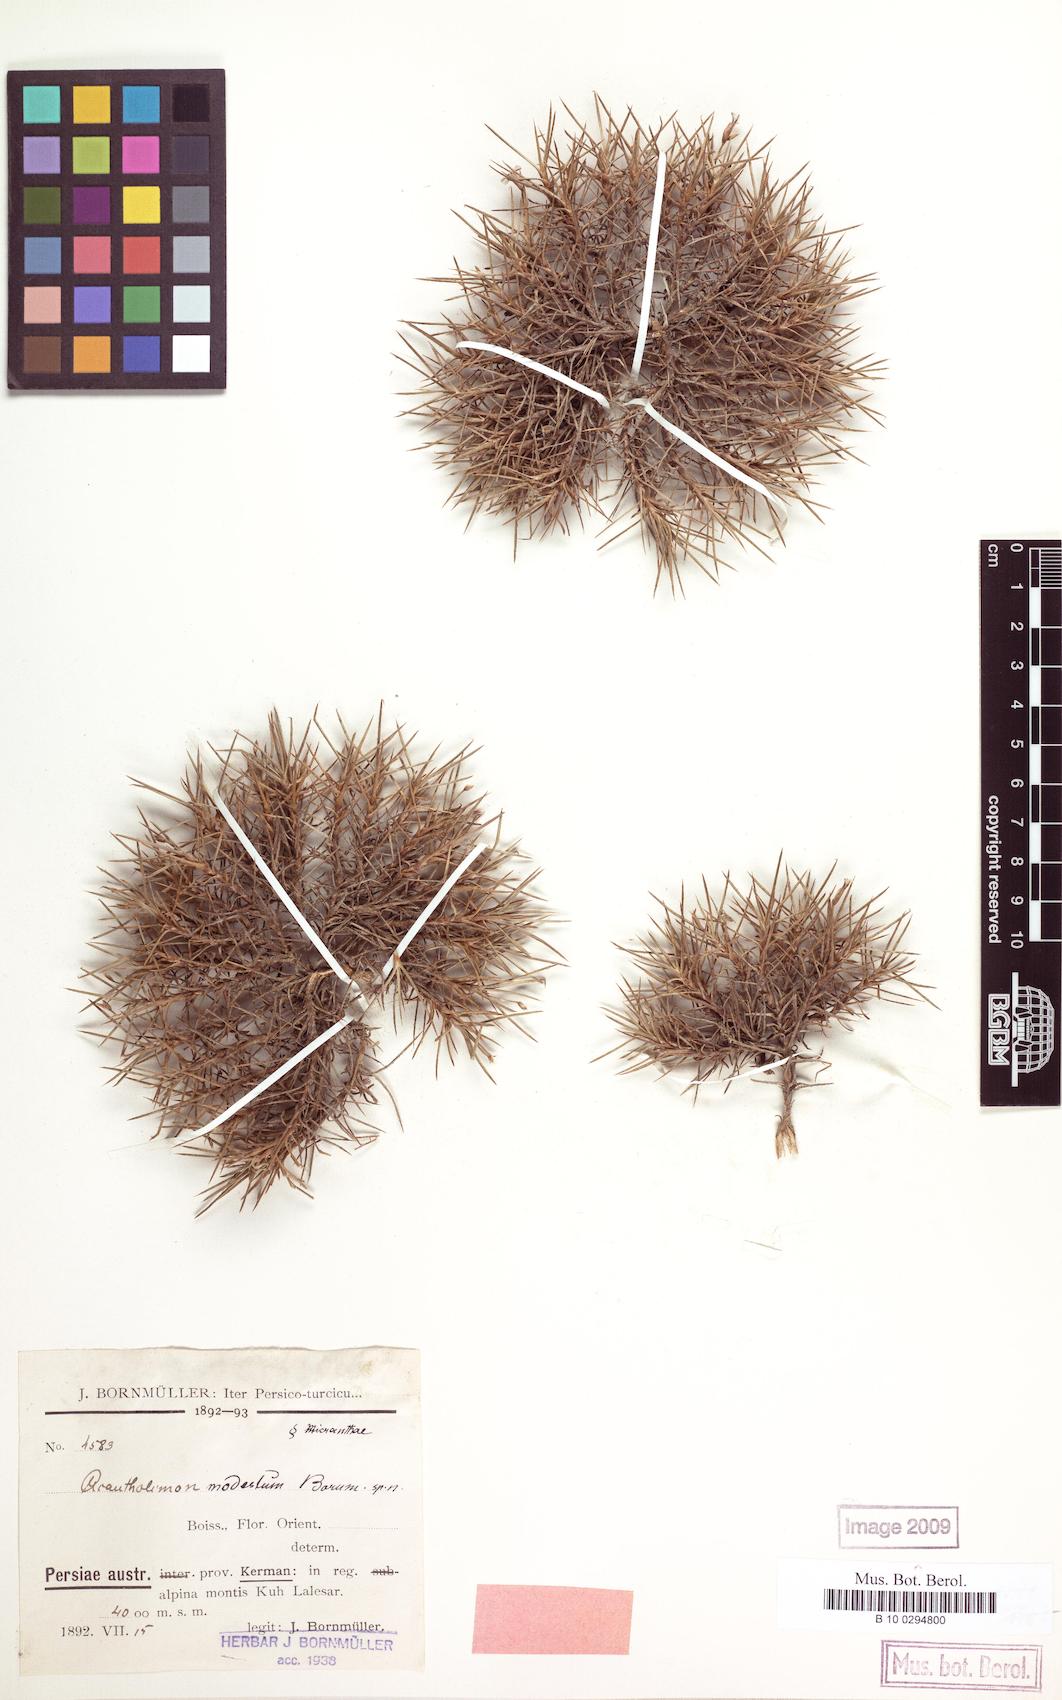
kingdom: Plantae
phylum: Tracheophyta
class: Magnoliopsida
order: Caryophyllales
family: Plumbaginaceae
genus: Acantholimon
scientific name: Acantholimon modestum
